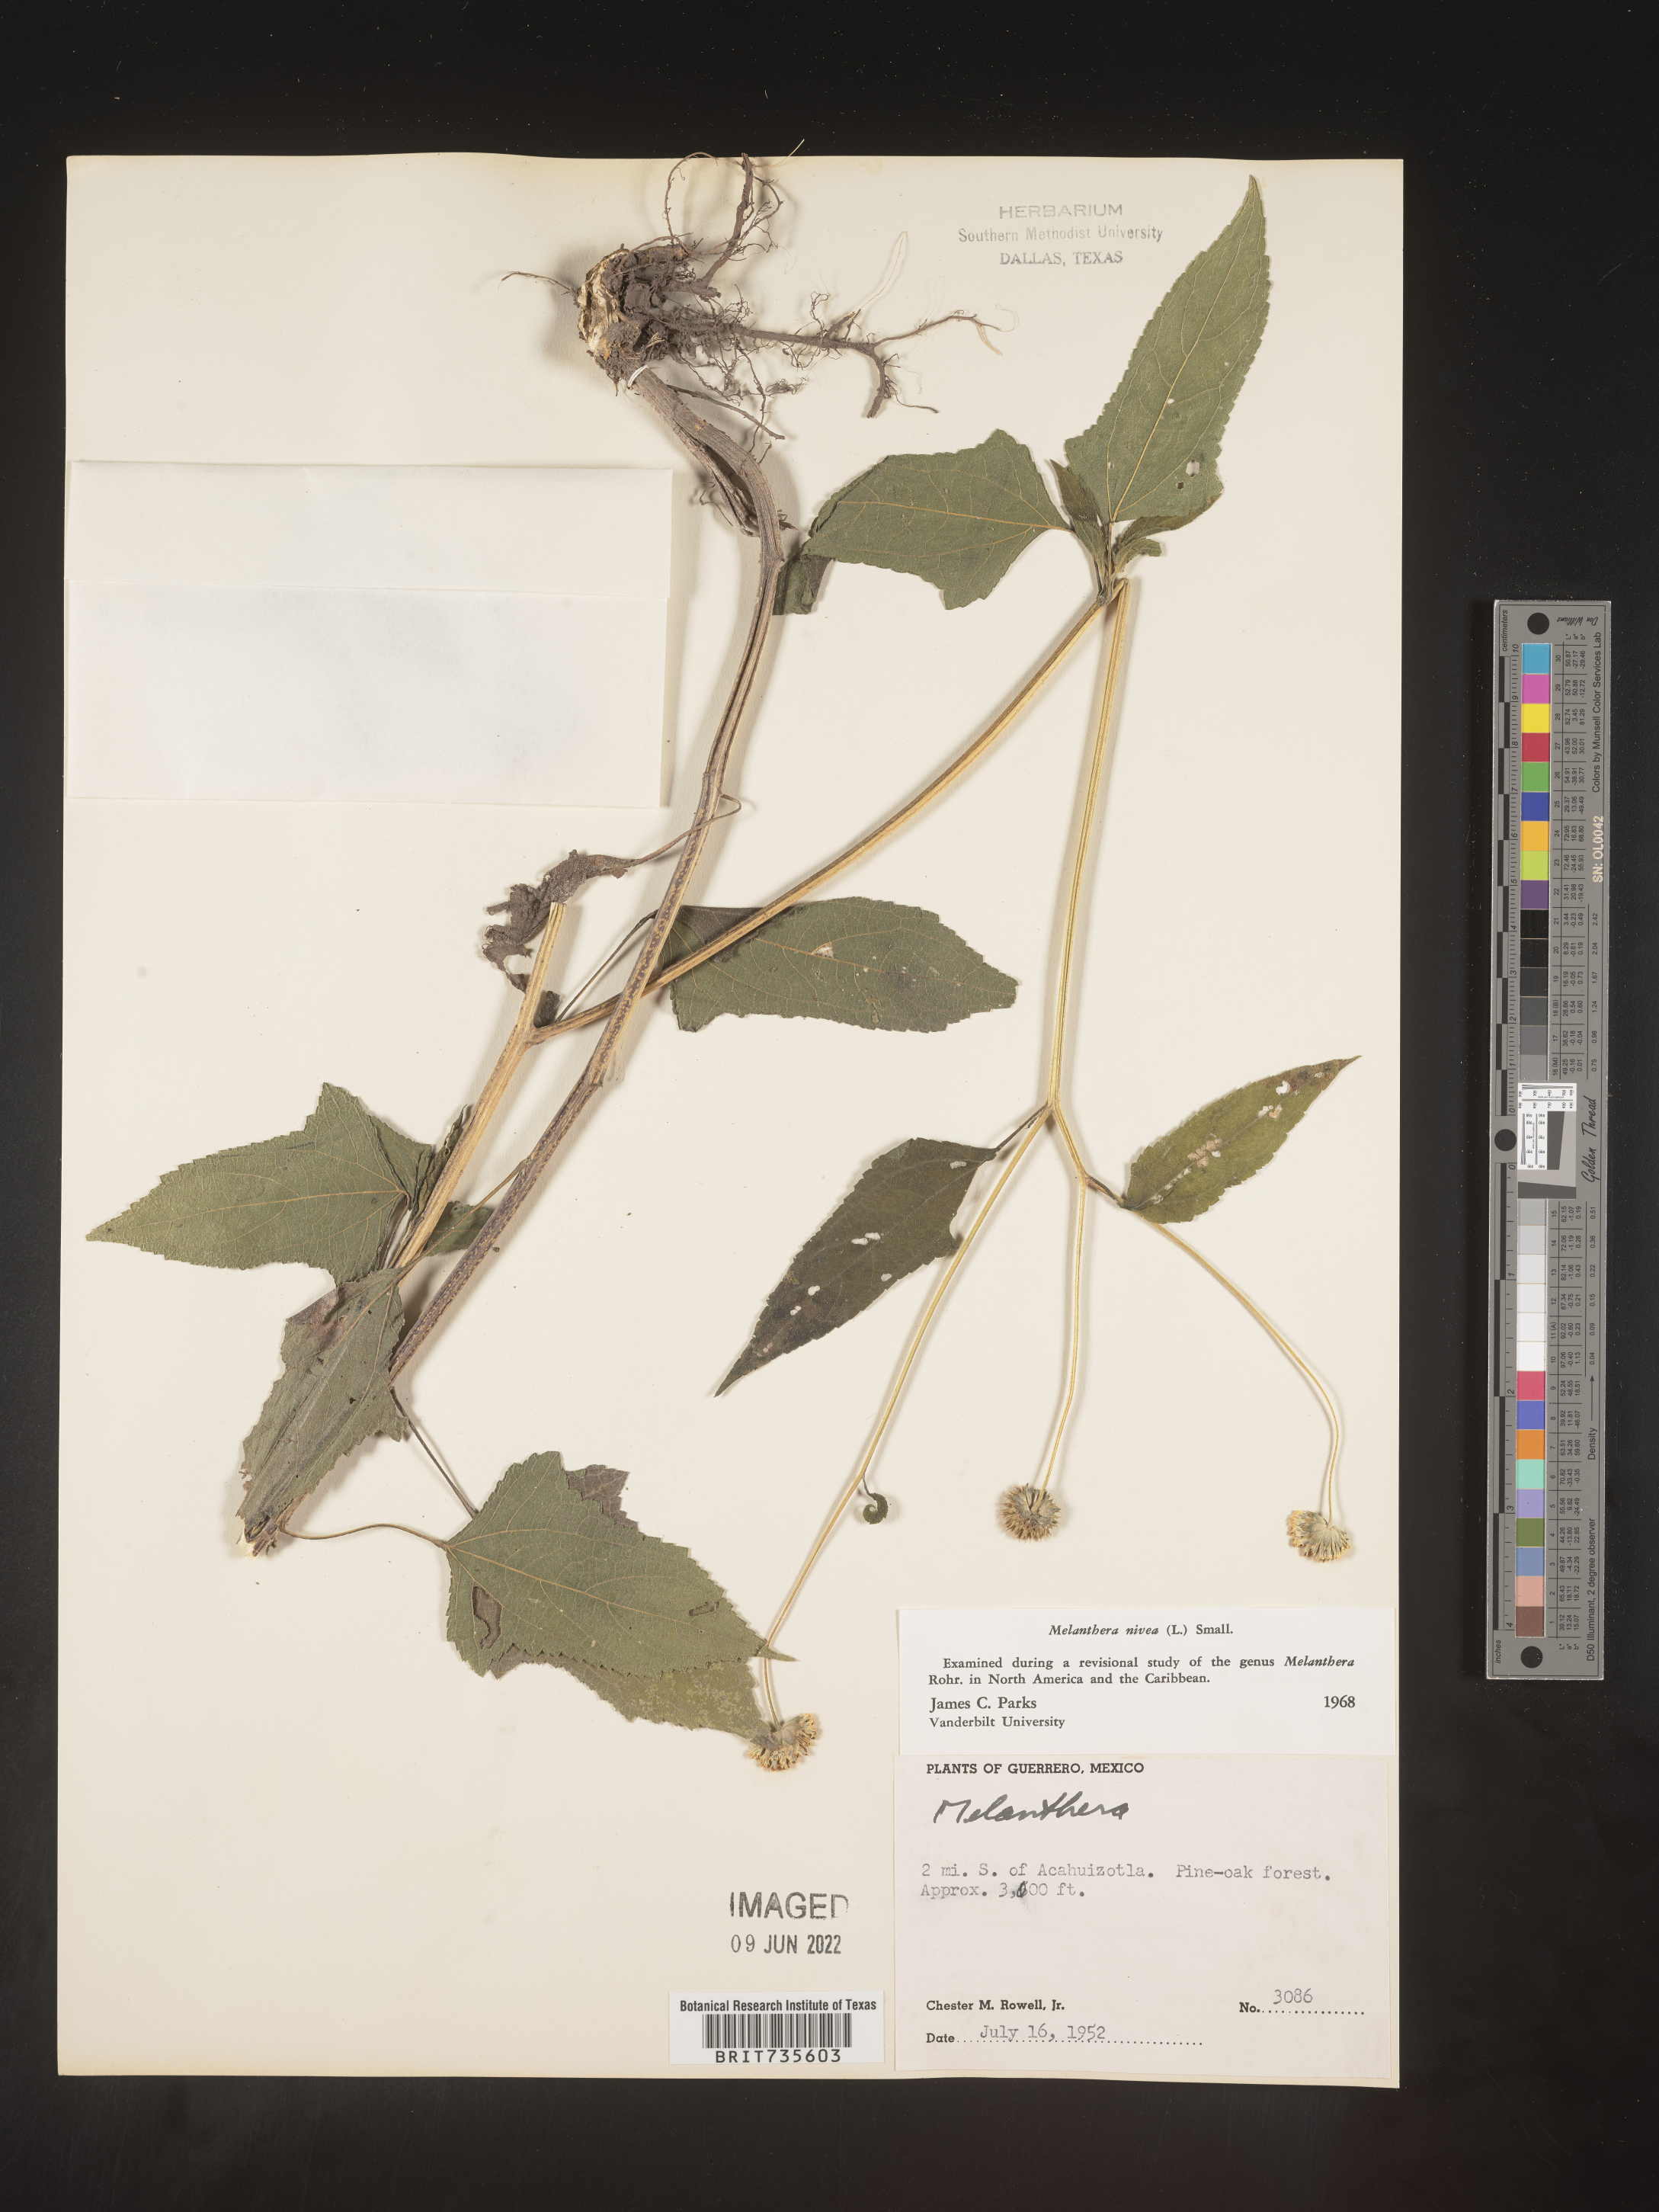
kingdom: Plantae
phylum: Tracheophyta
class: Magnoliopsida
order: Asterales
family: Asteraceae
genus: Melanthera
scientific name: Melanthera
